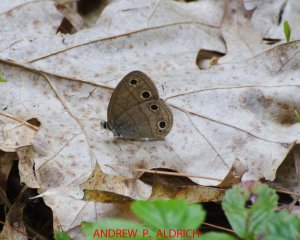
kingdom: Animalia
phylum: Arthropoda
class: Insecta
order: Lepidoptera
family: Nymphalidae
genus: Euptychia
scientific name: Euptychia cymela
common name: Little Wood Satyr
